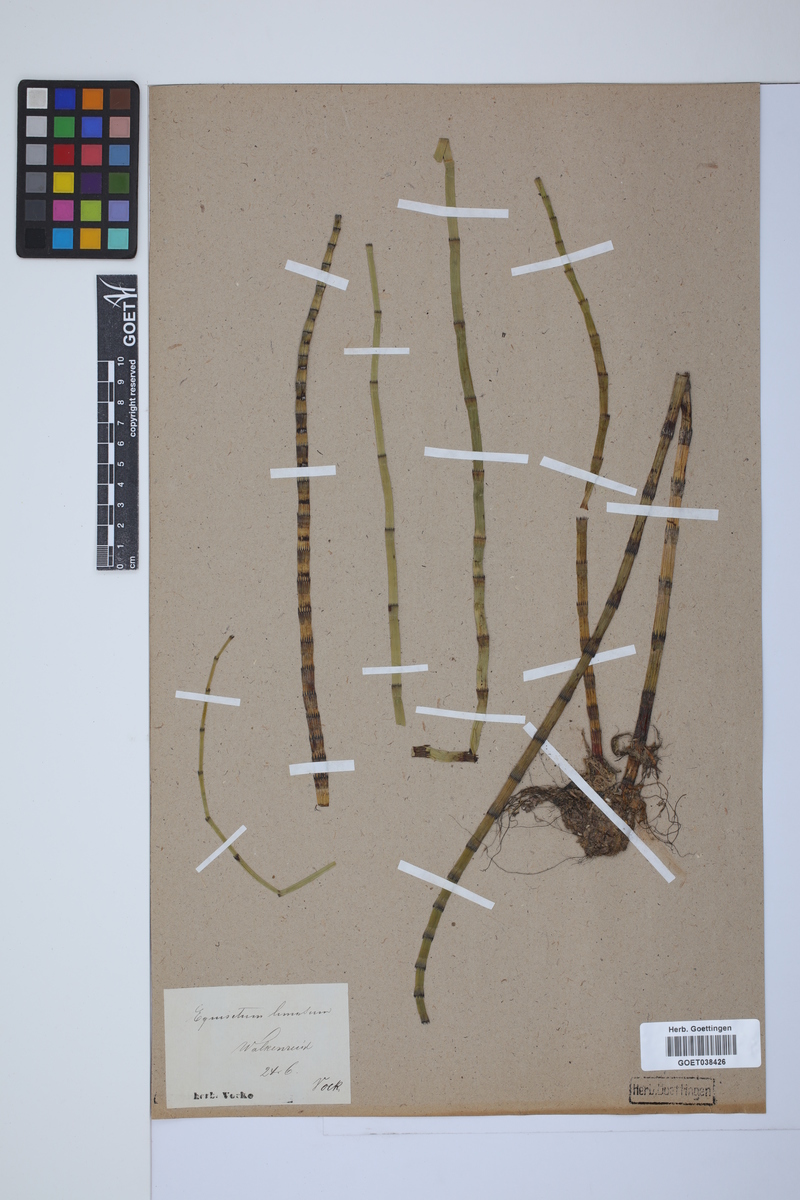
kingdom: Plantae
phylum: Tracheophyta
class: Polypodiopsida
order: Equisetales
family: Equisetaceae
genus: Equisetum
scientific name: Equisetum fluviatile
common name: Water horsetail
